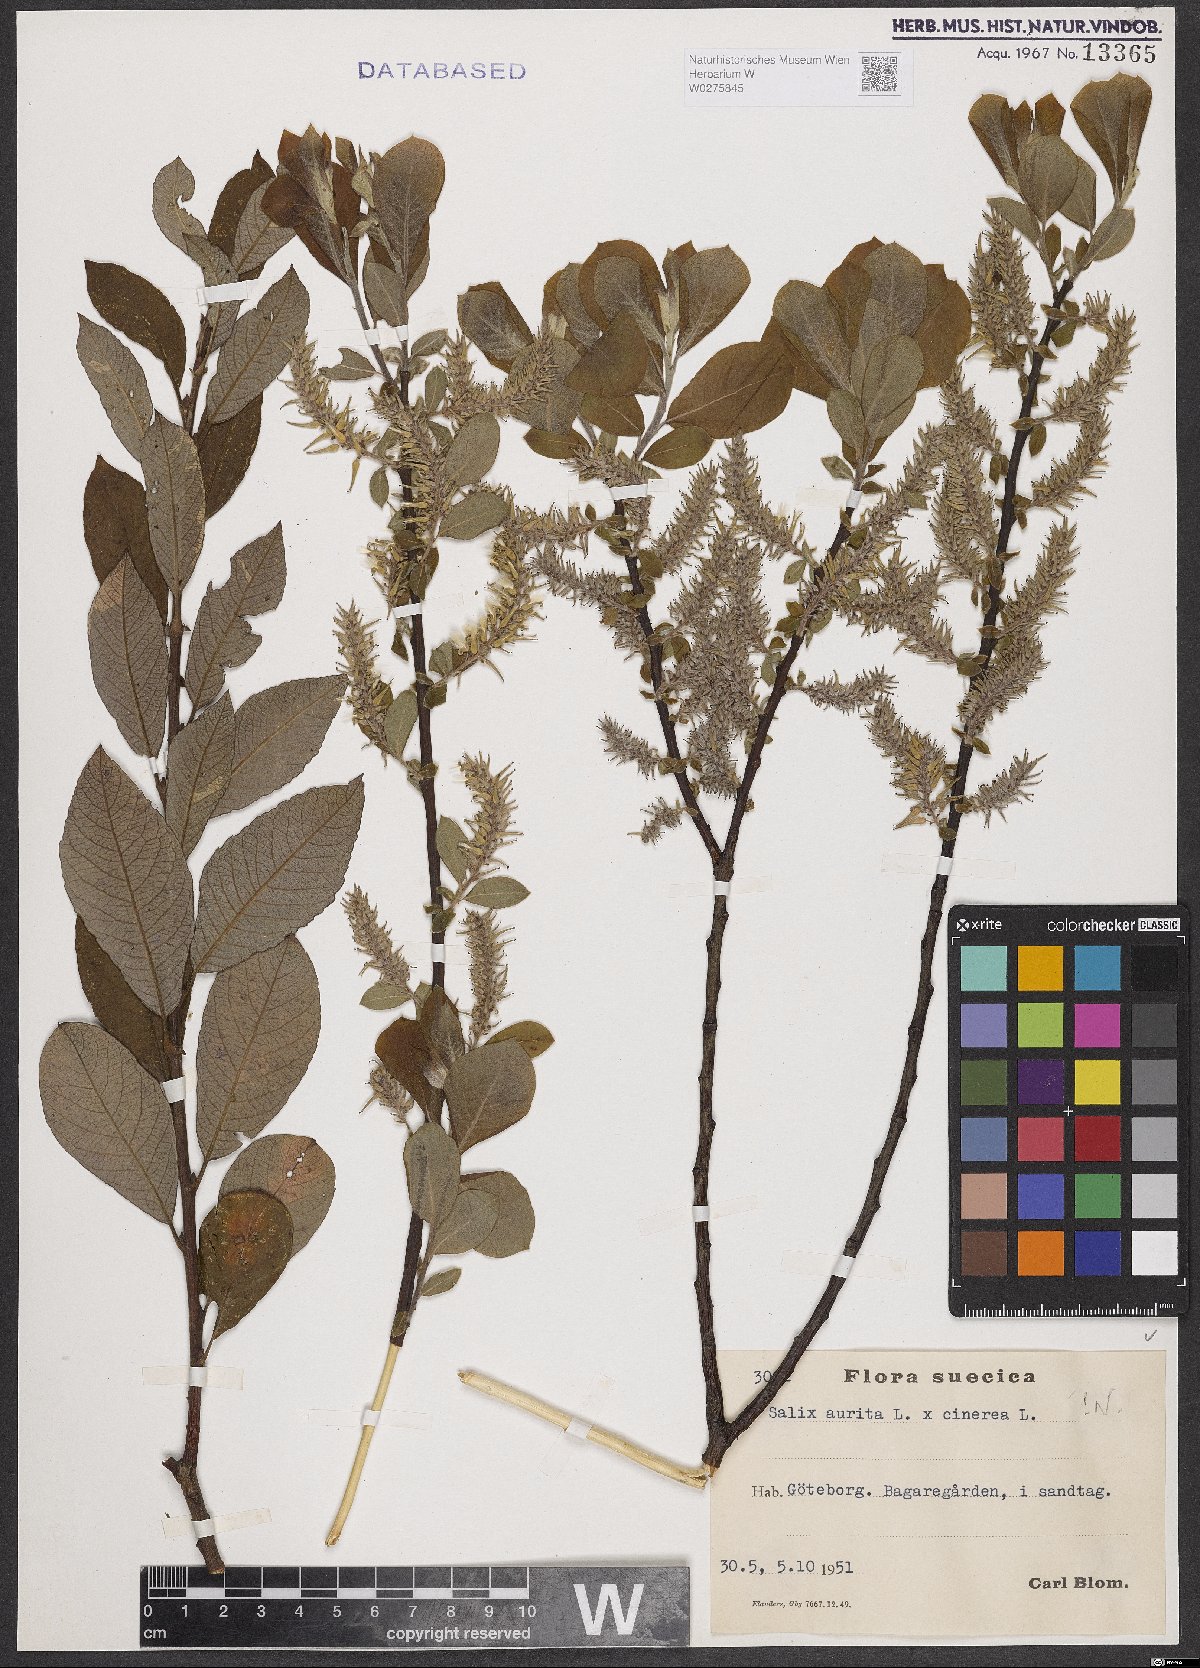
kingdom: Plantae
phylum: Tracheophyta
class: Magnoliopsida
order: Malpighiales
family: Salicaceae
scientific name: Salicaceae
